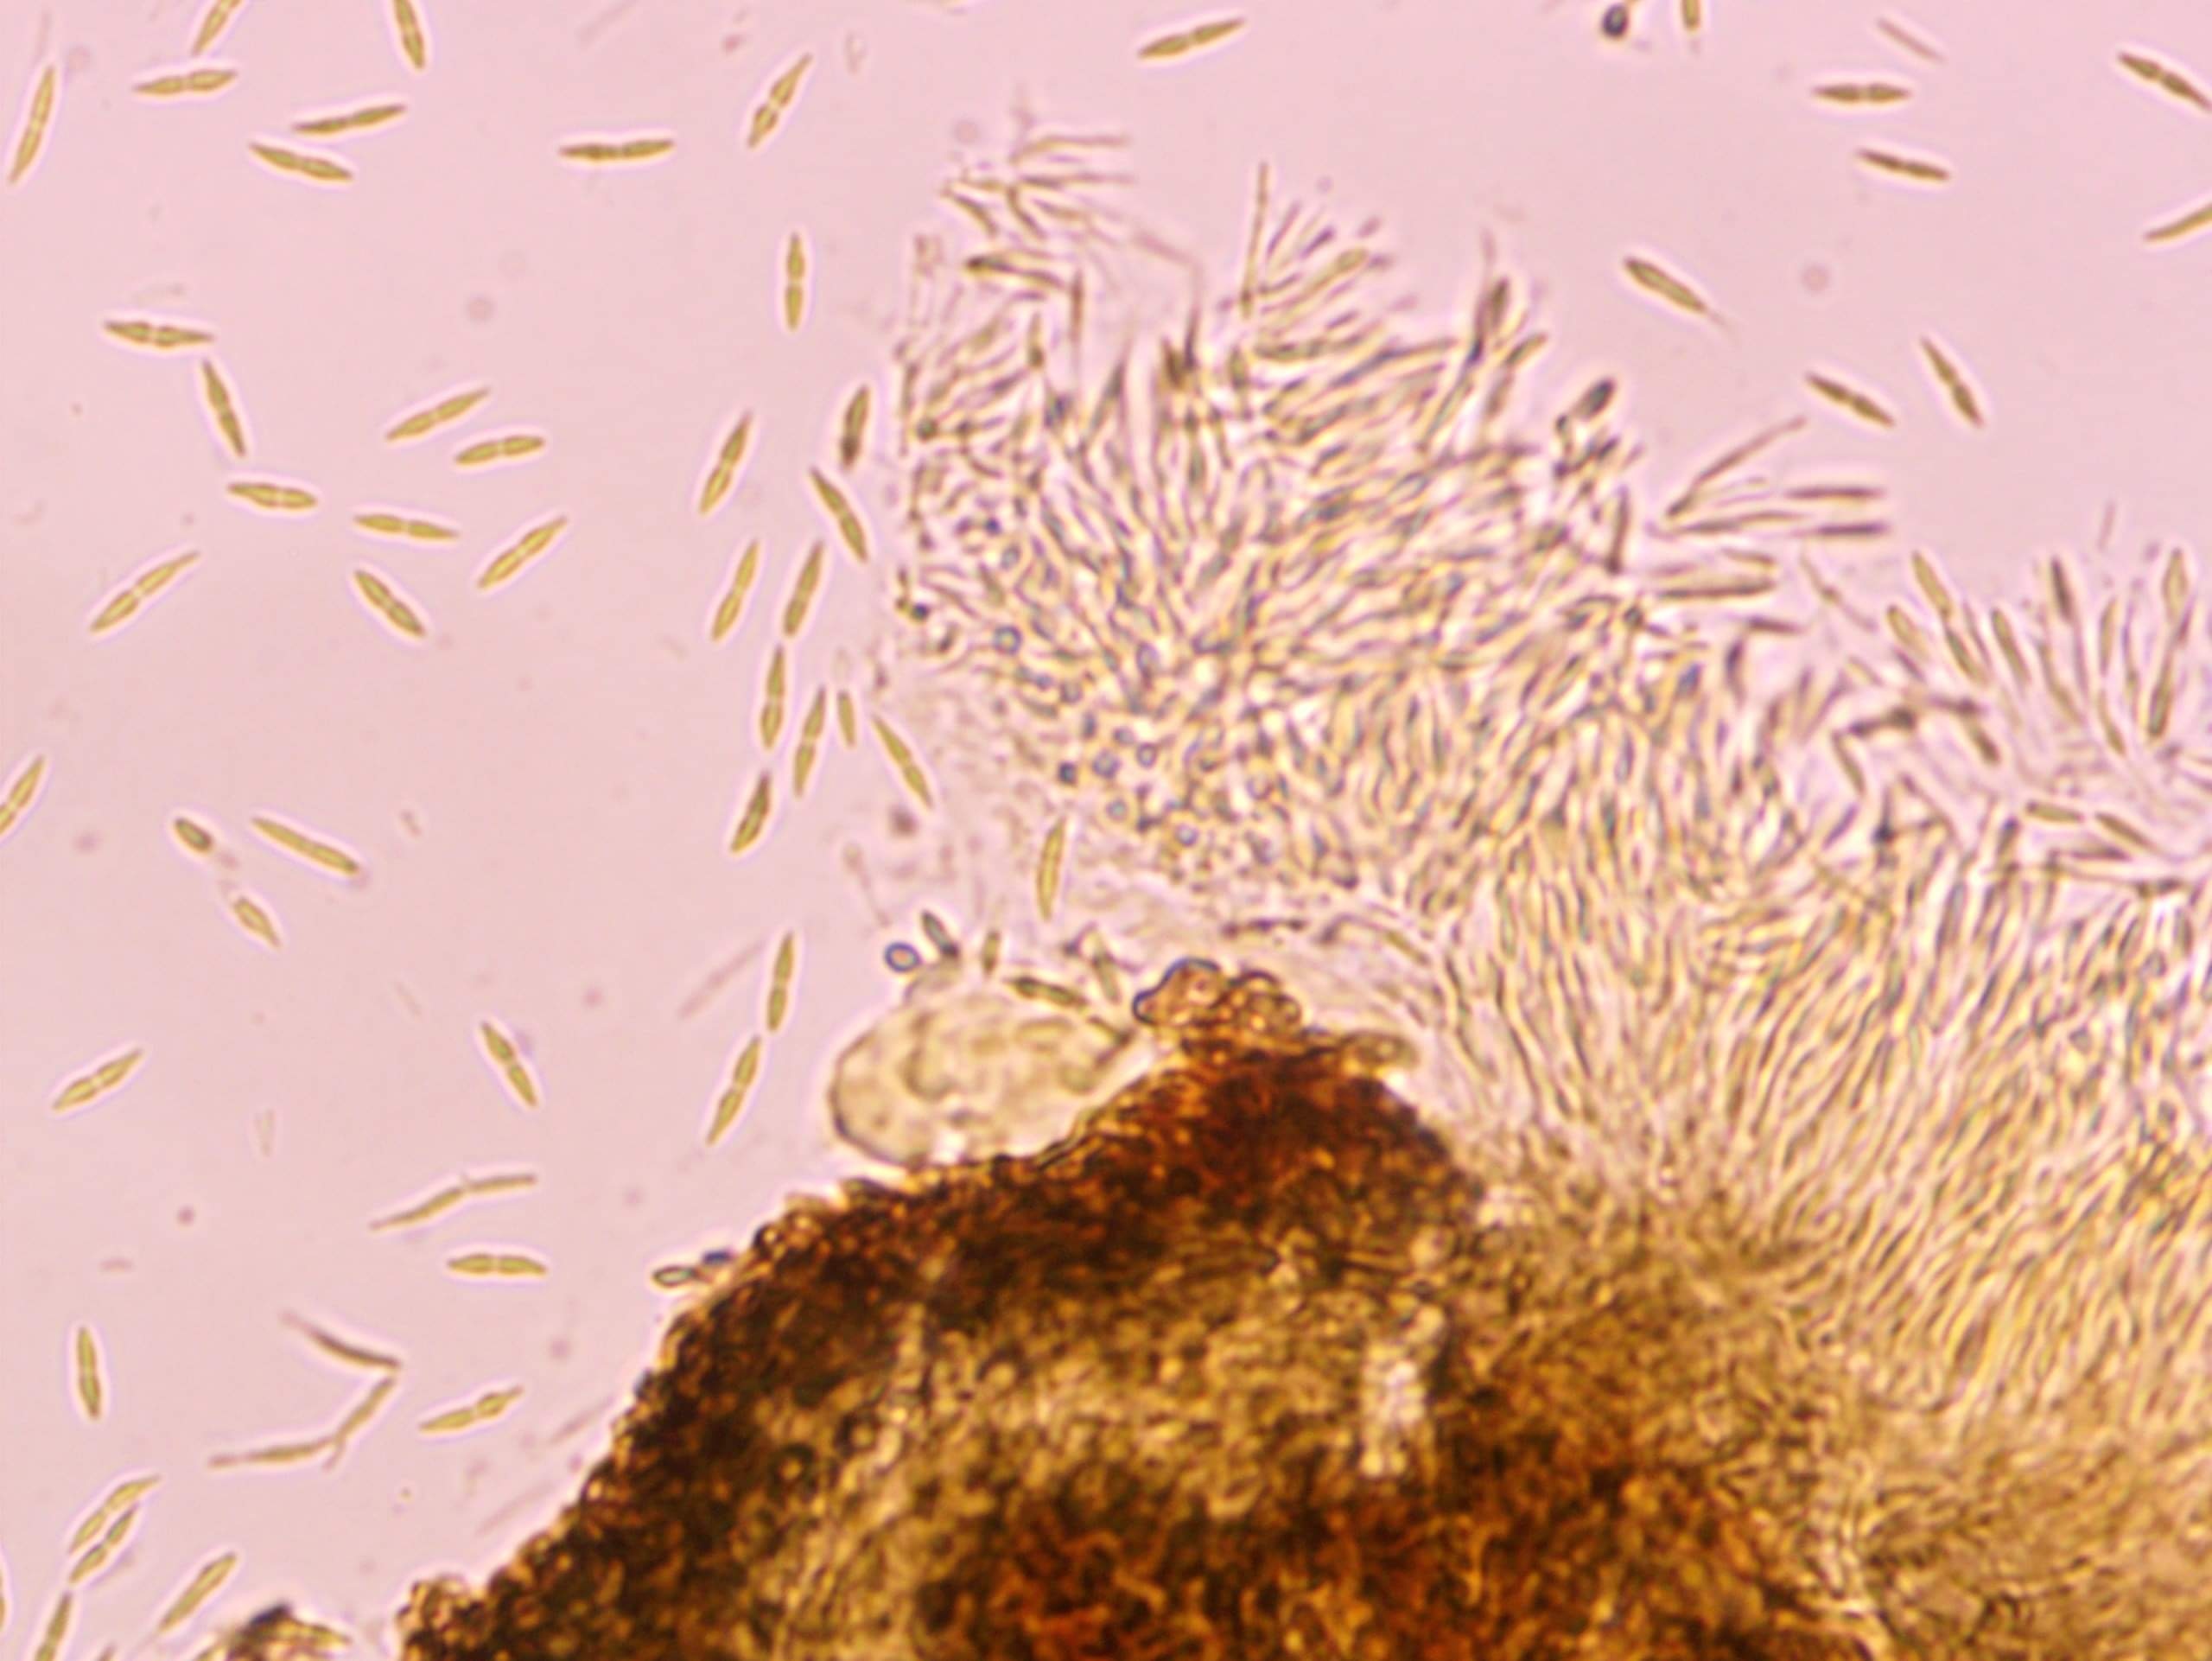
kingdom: Fungi
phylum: Ascomycota
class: Sordariomycetes
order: Diaporthales
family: Gnomoniaceae
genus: Sirococcus
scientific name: Sirococcus conigenus
